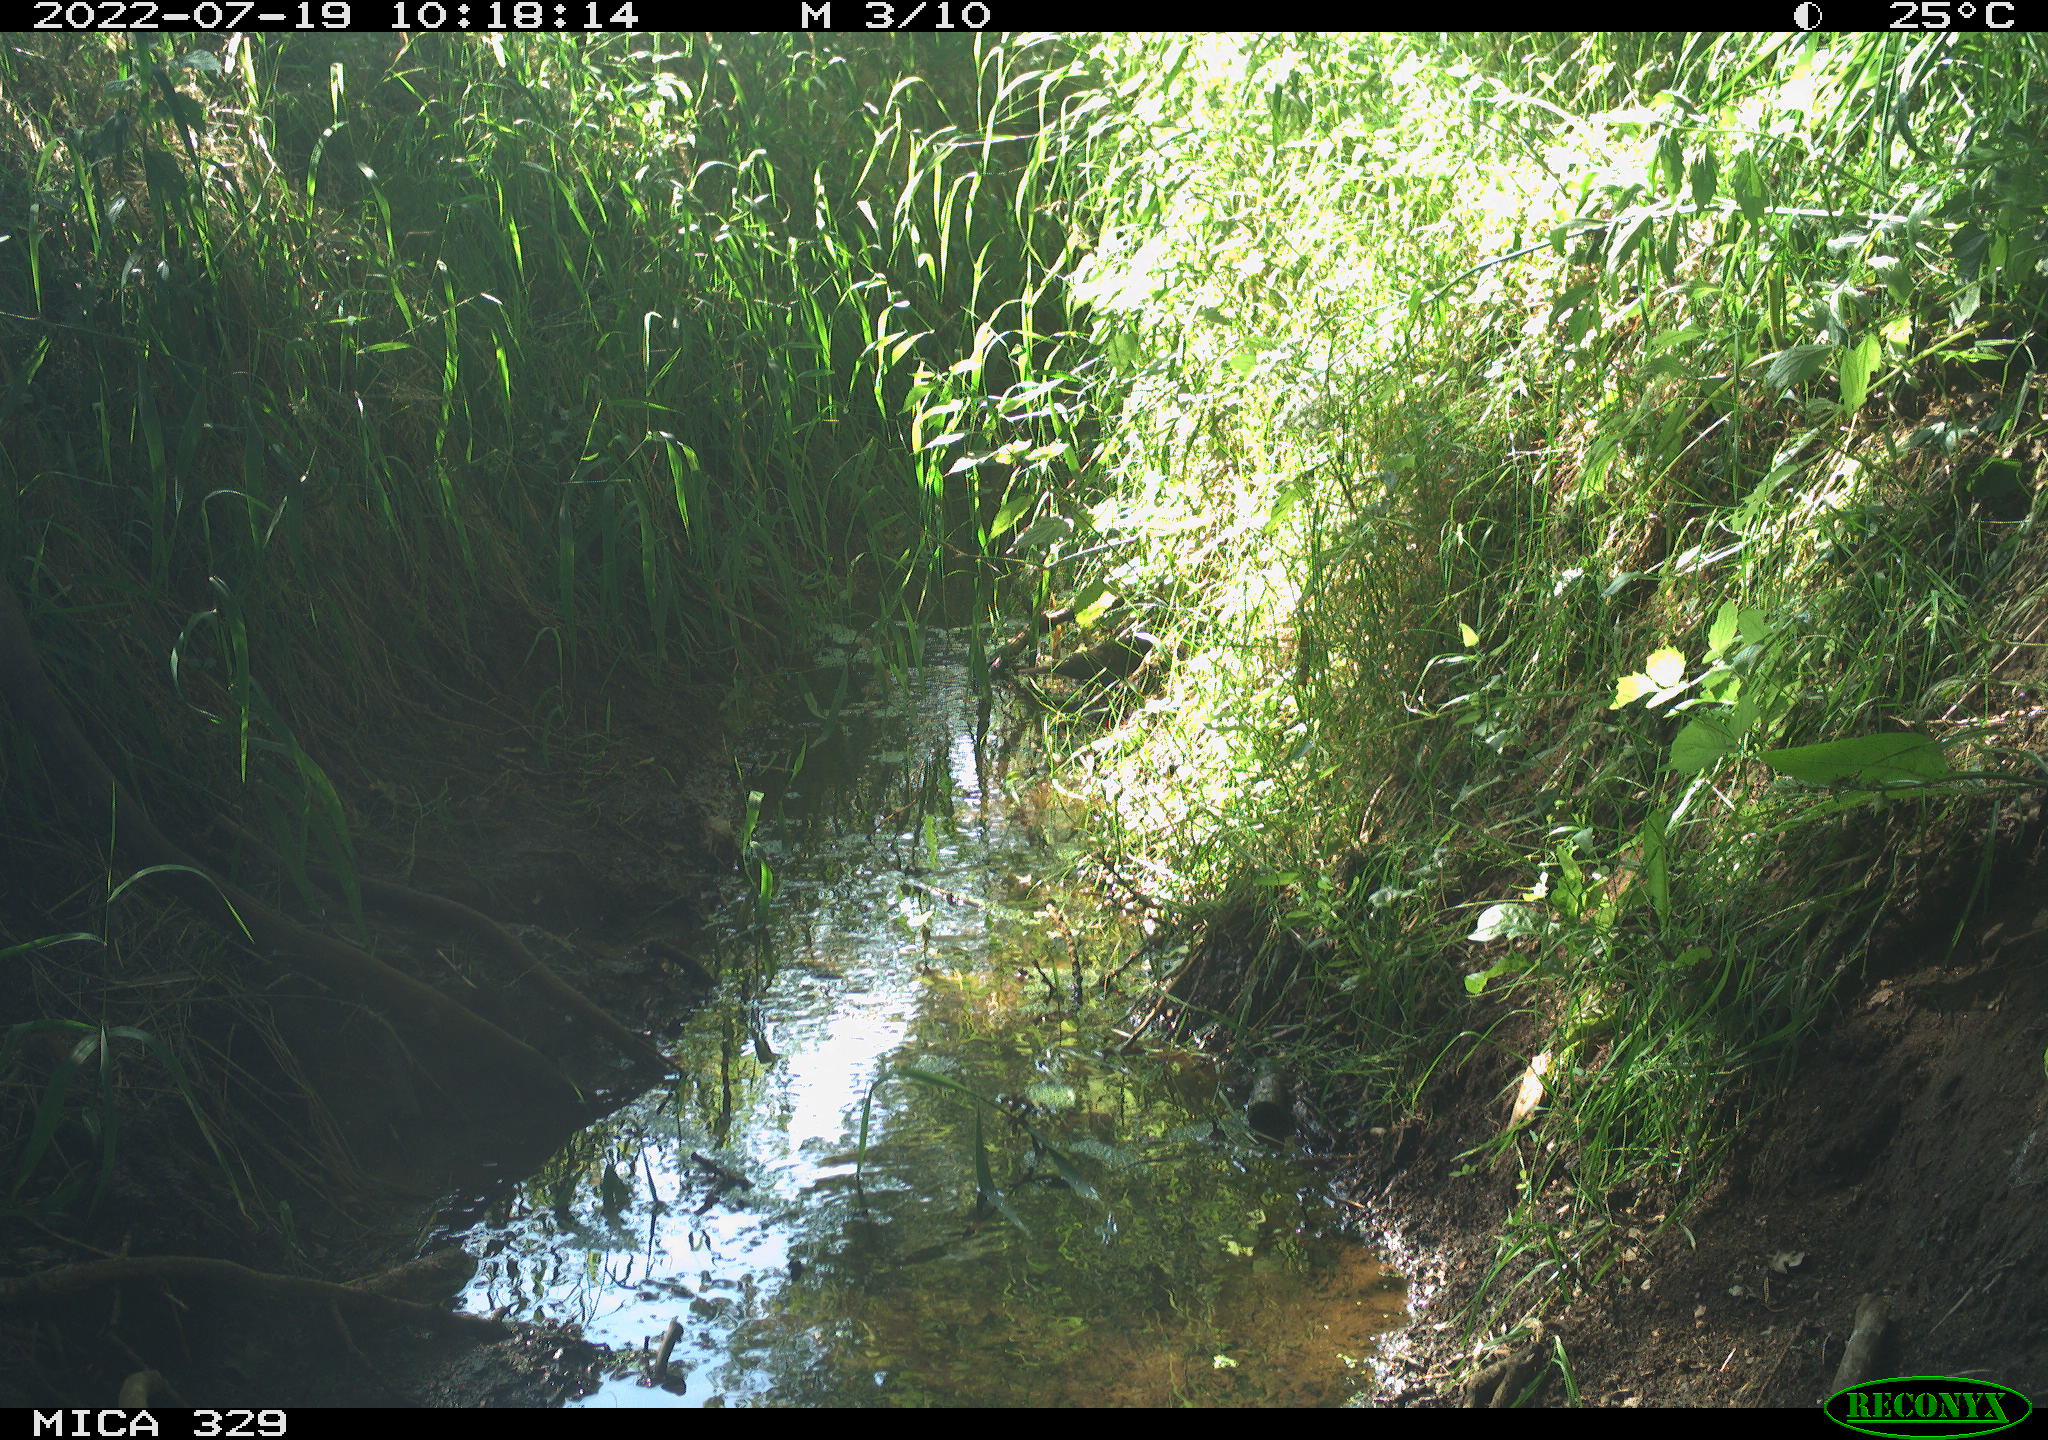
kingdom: Animalia
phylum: Chordata
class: Aves
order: Passeriformes
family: Turdidae
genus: Turdus
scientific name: Turdus merula
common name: Common blackbird
